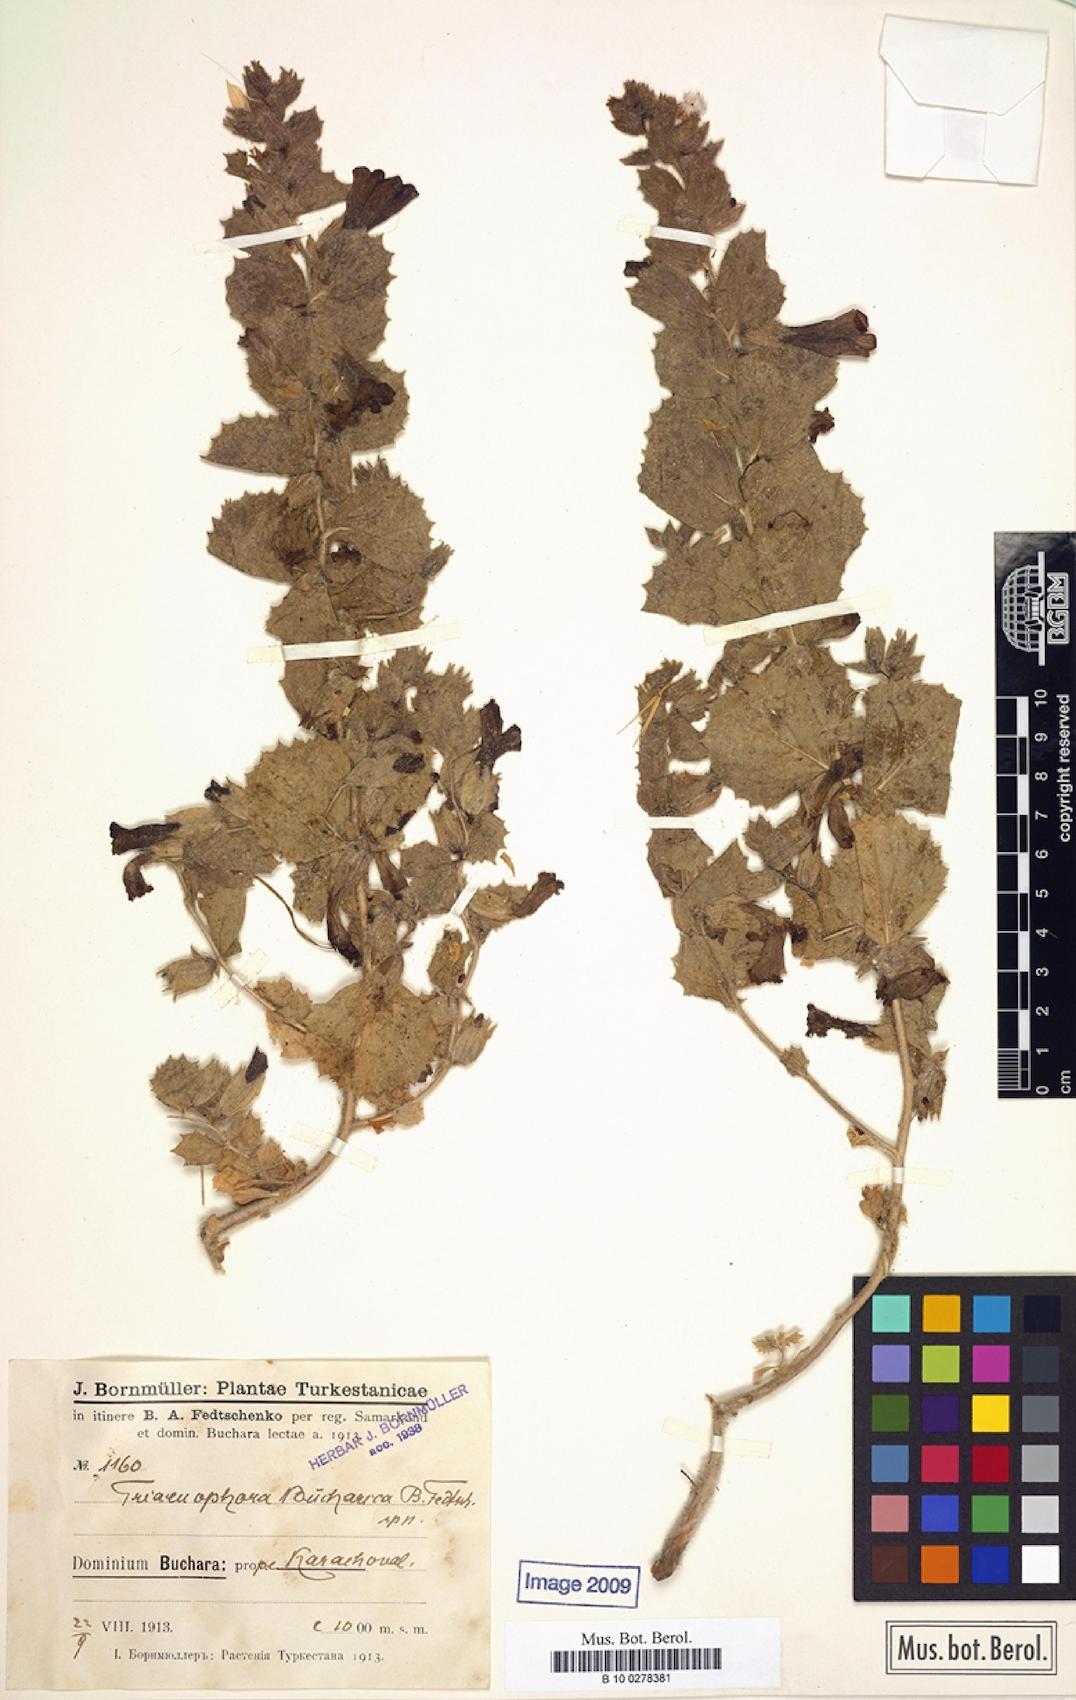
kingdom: Plantae
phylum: Tracheophyta
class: Magnoliopsida
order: Lamiales
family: Rehmanniaceae
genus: Triaenophora
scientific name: Triaenophora bucharica
